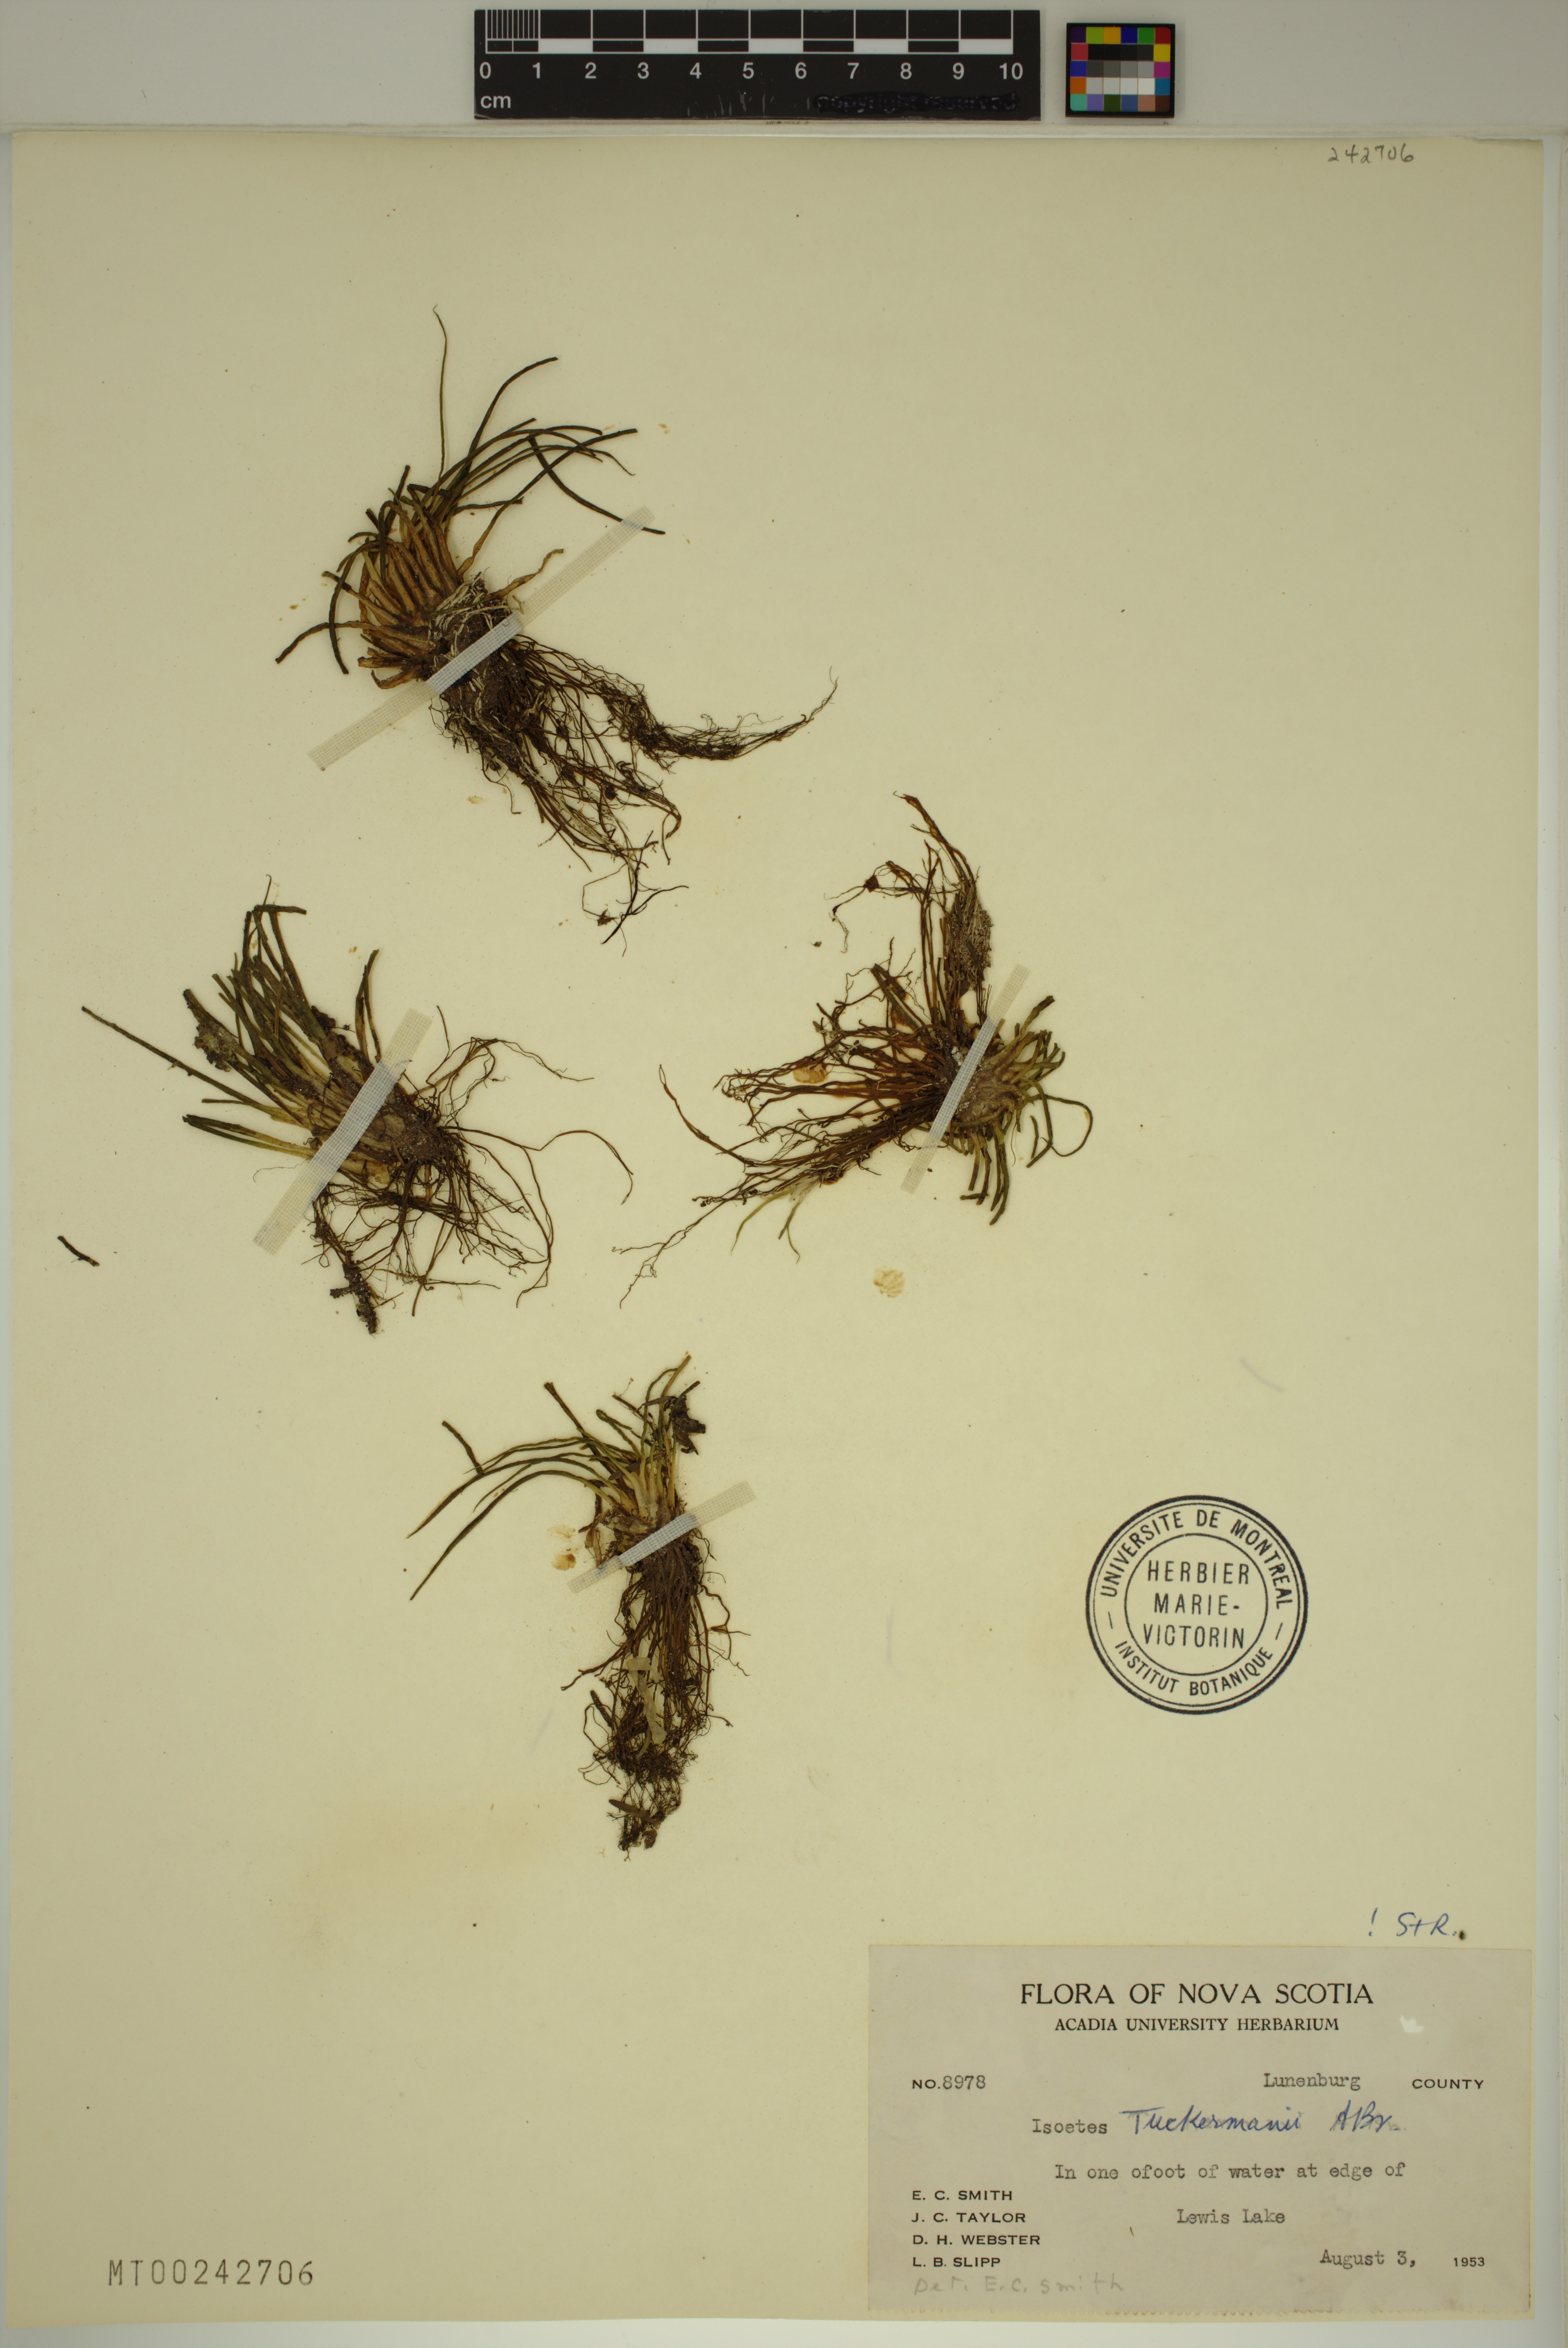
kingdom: Plantae
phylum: Tracheophyta
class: Lycopodiopsida
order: Isoetales
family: Isoetaceae
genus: Isoetes
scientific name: Isoetes tuckermanii
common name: Tuckerman's quillwort
